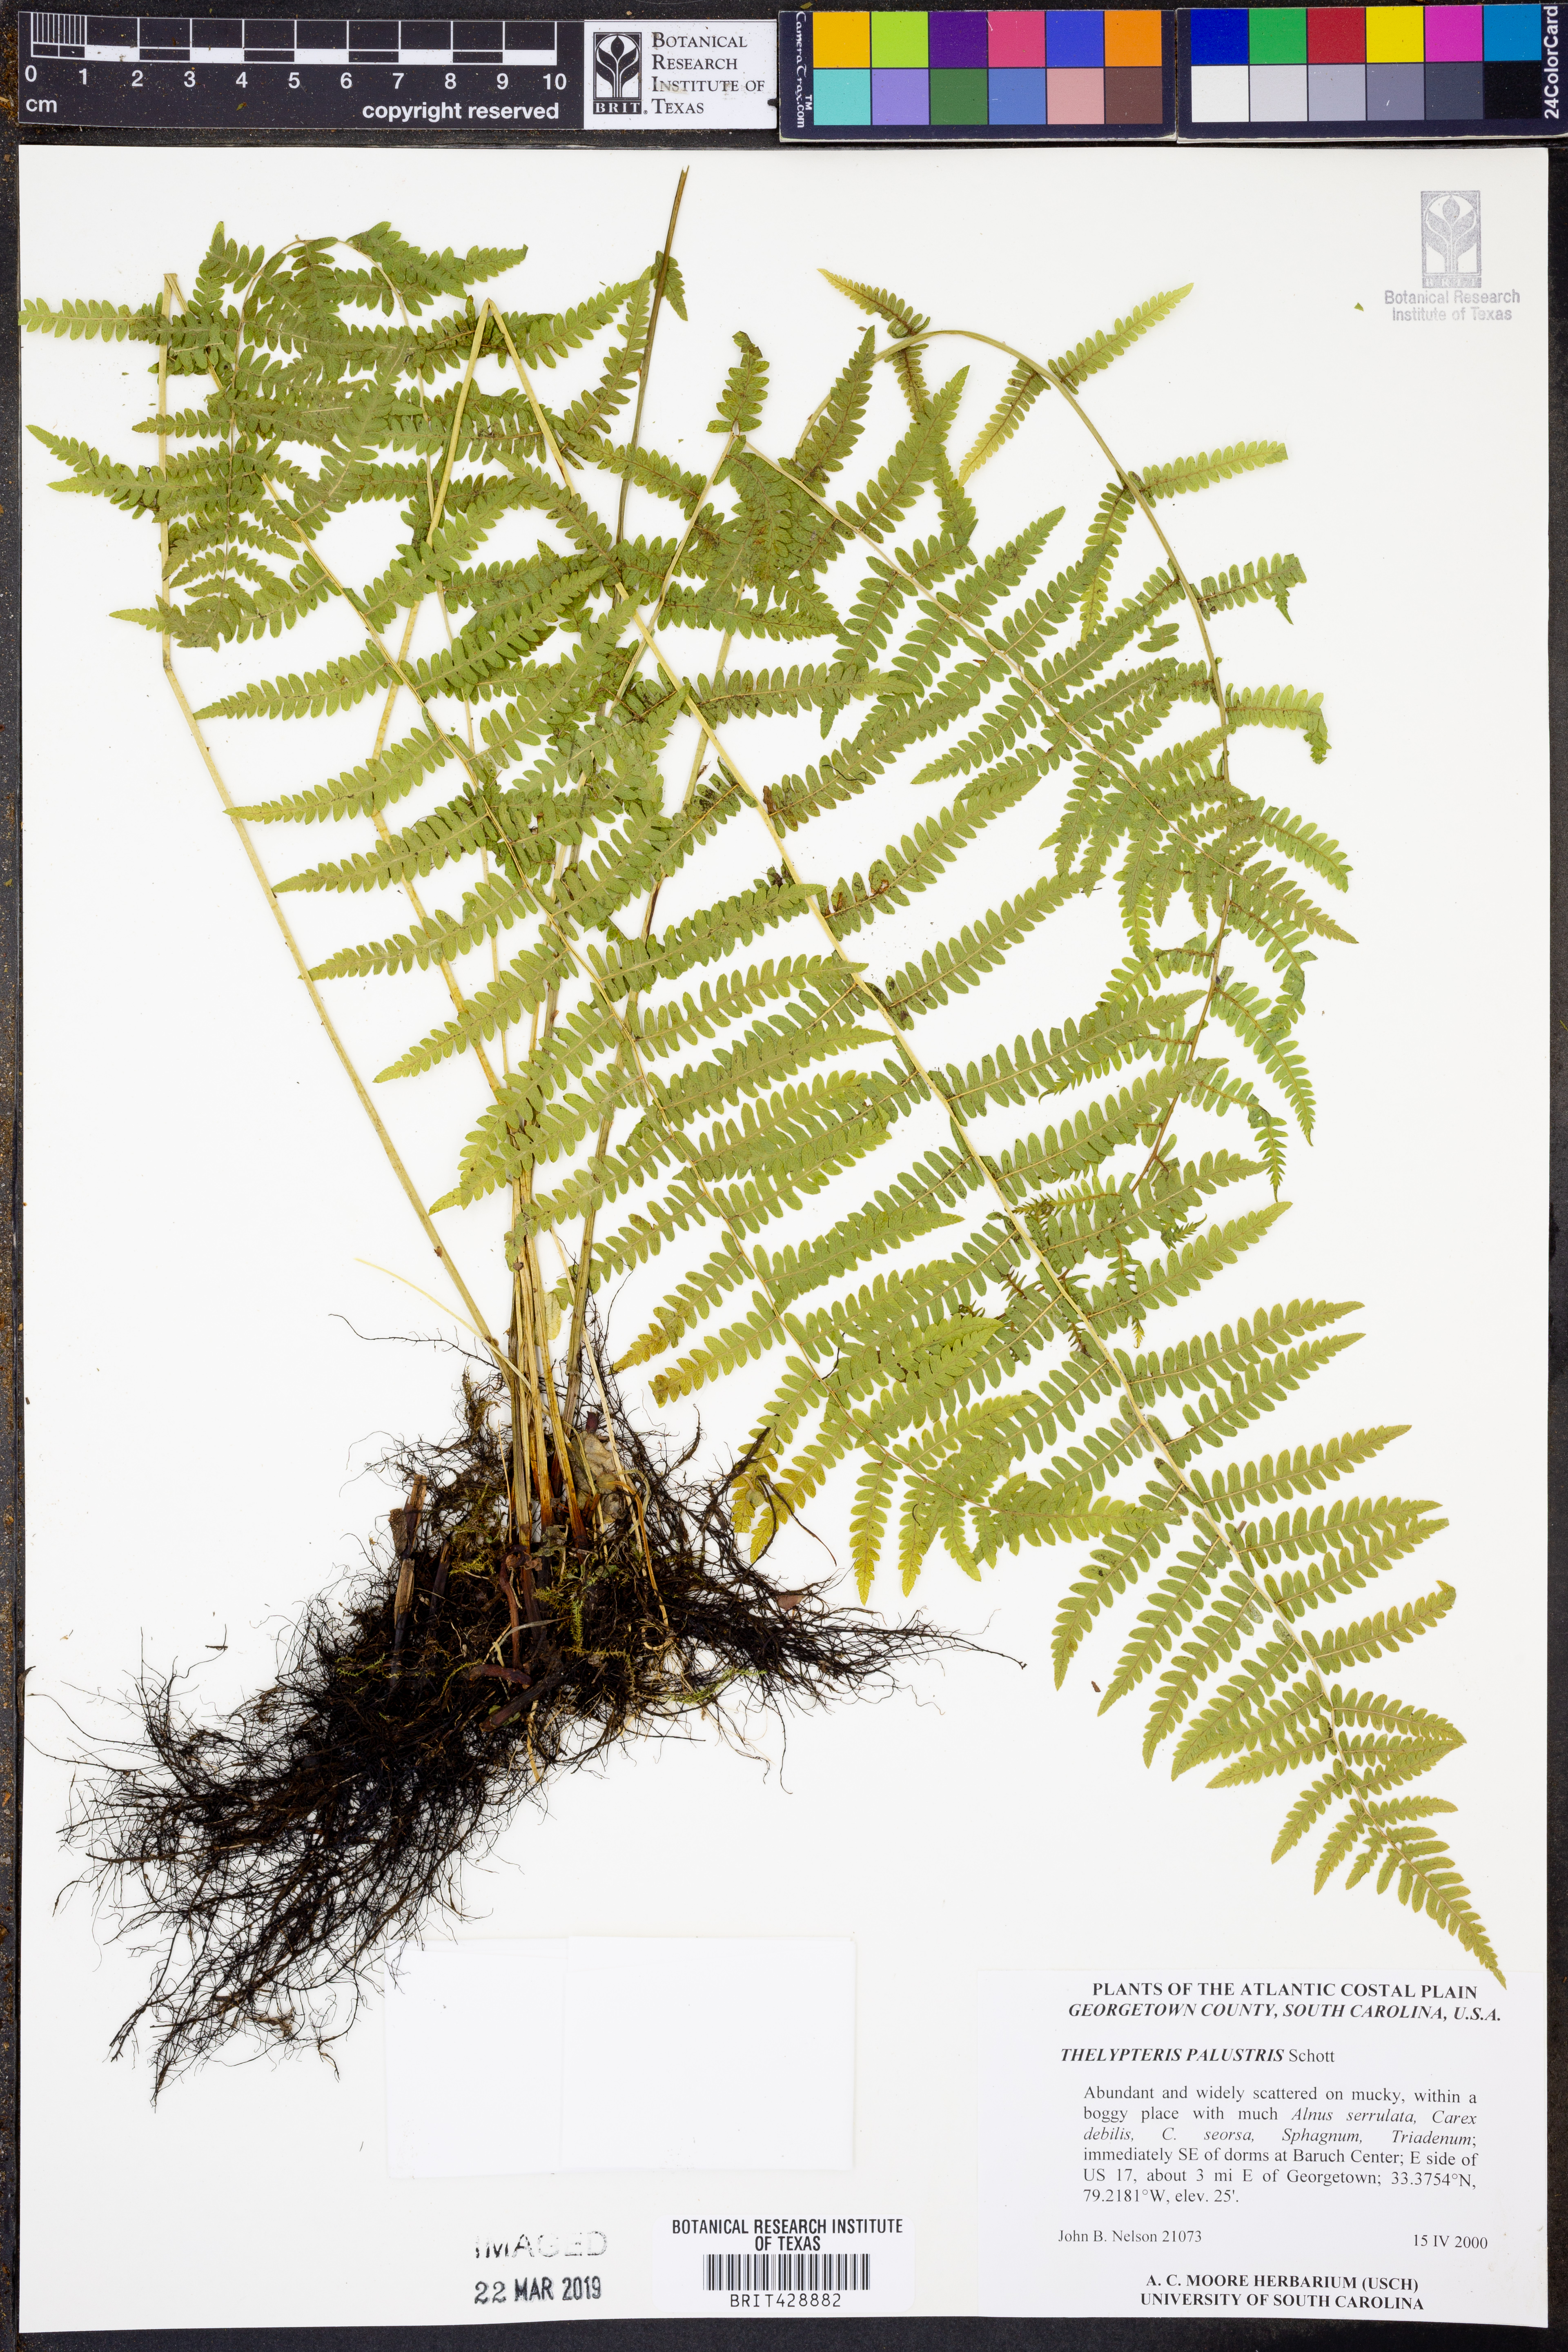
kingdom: Plantae
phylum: Tracheophyta
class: Polypodiopsida
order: Polypodiales
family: Thelypteridaceae
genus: Thelypteris
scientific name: Thelypteris palustris
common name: Marsh fern
